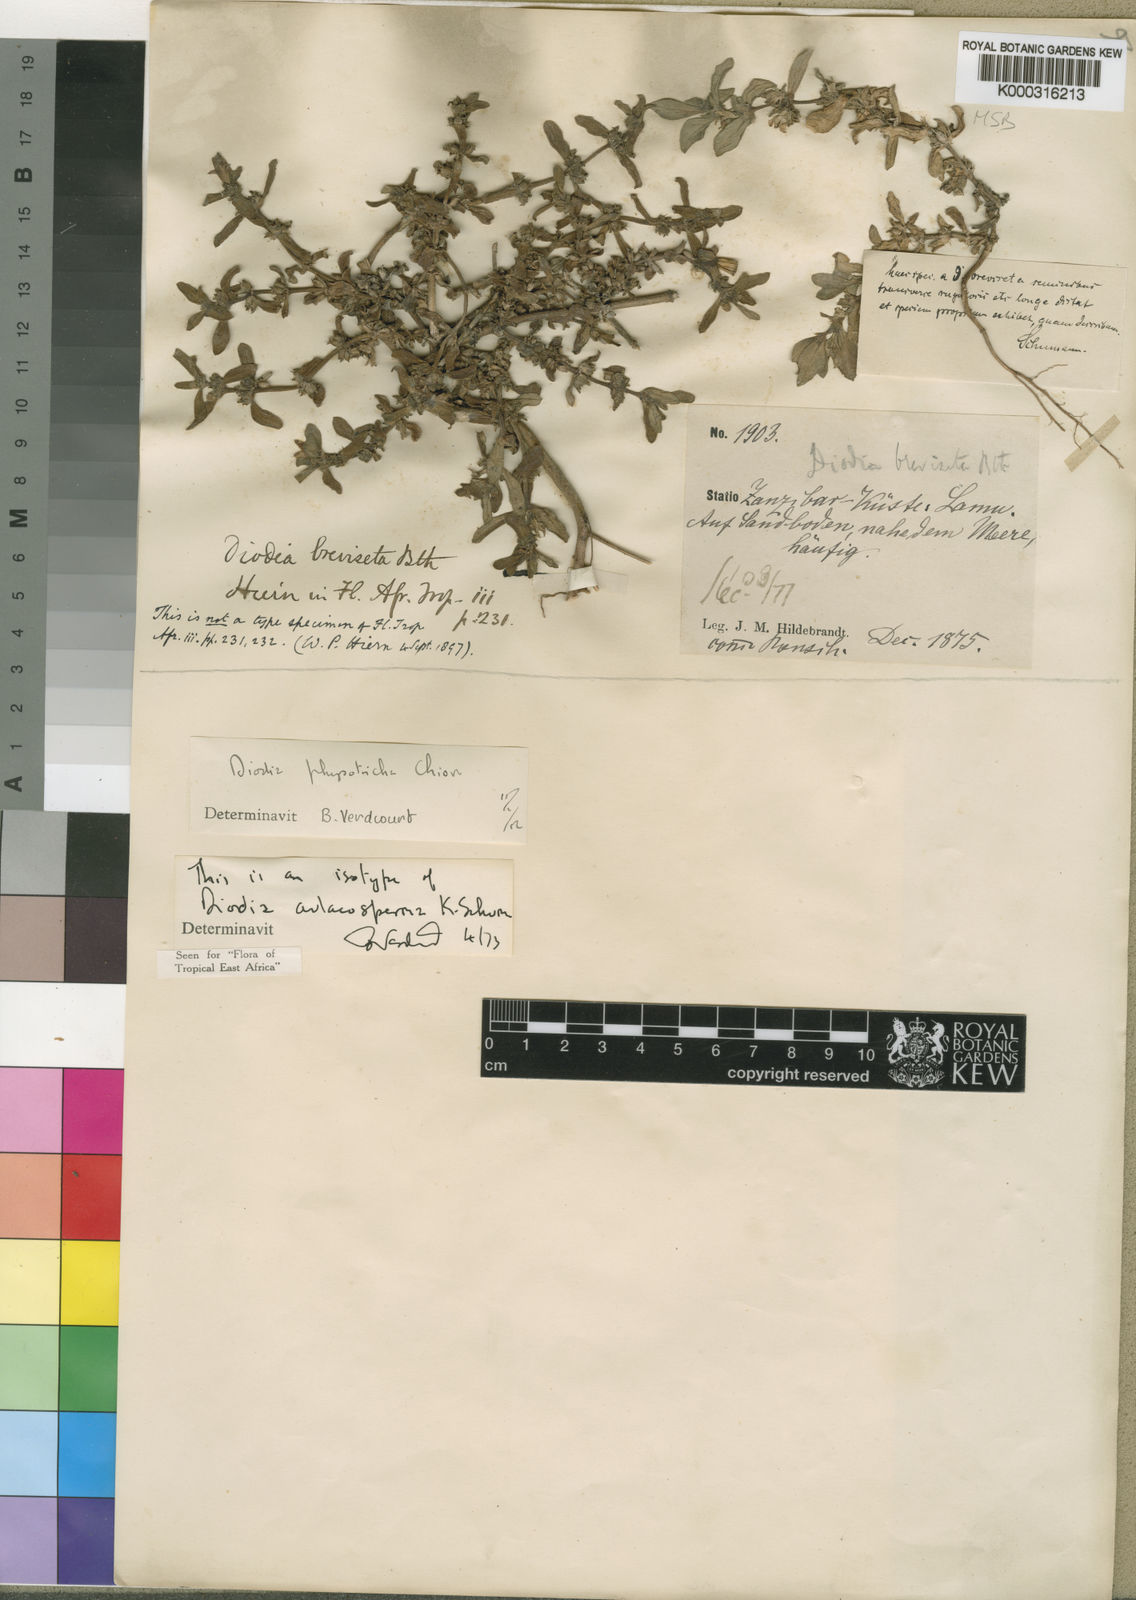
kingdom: Plantae
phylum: Tracheophyta
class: Magnoliopsida
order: Gentianales
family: Rubiaceae
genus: Diodia
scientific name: Diodia aulacosperma
